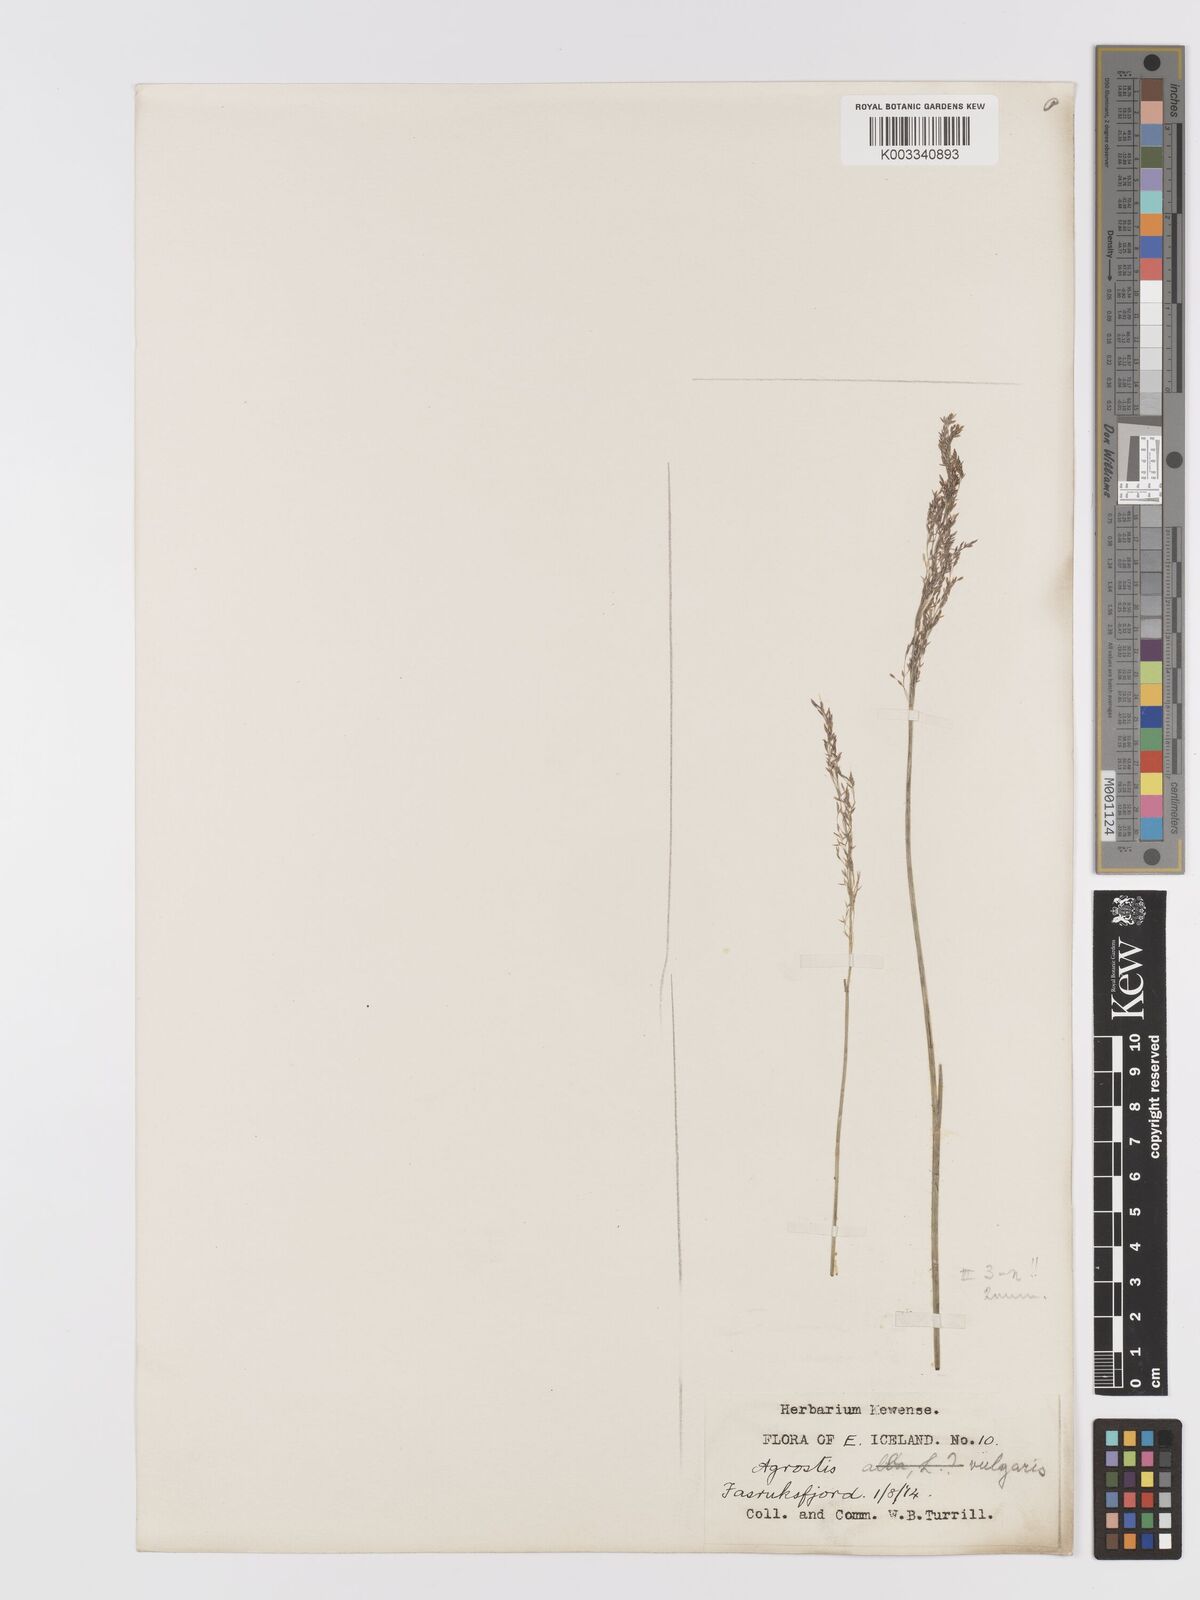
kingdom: Plantae
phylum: Tracheophyta
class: Liliopsida
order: Poales
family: Poaceae
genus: Agrostis
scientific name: Agrostis capillaris
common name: Colonial bentgrass
